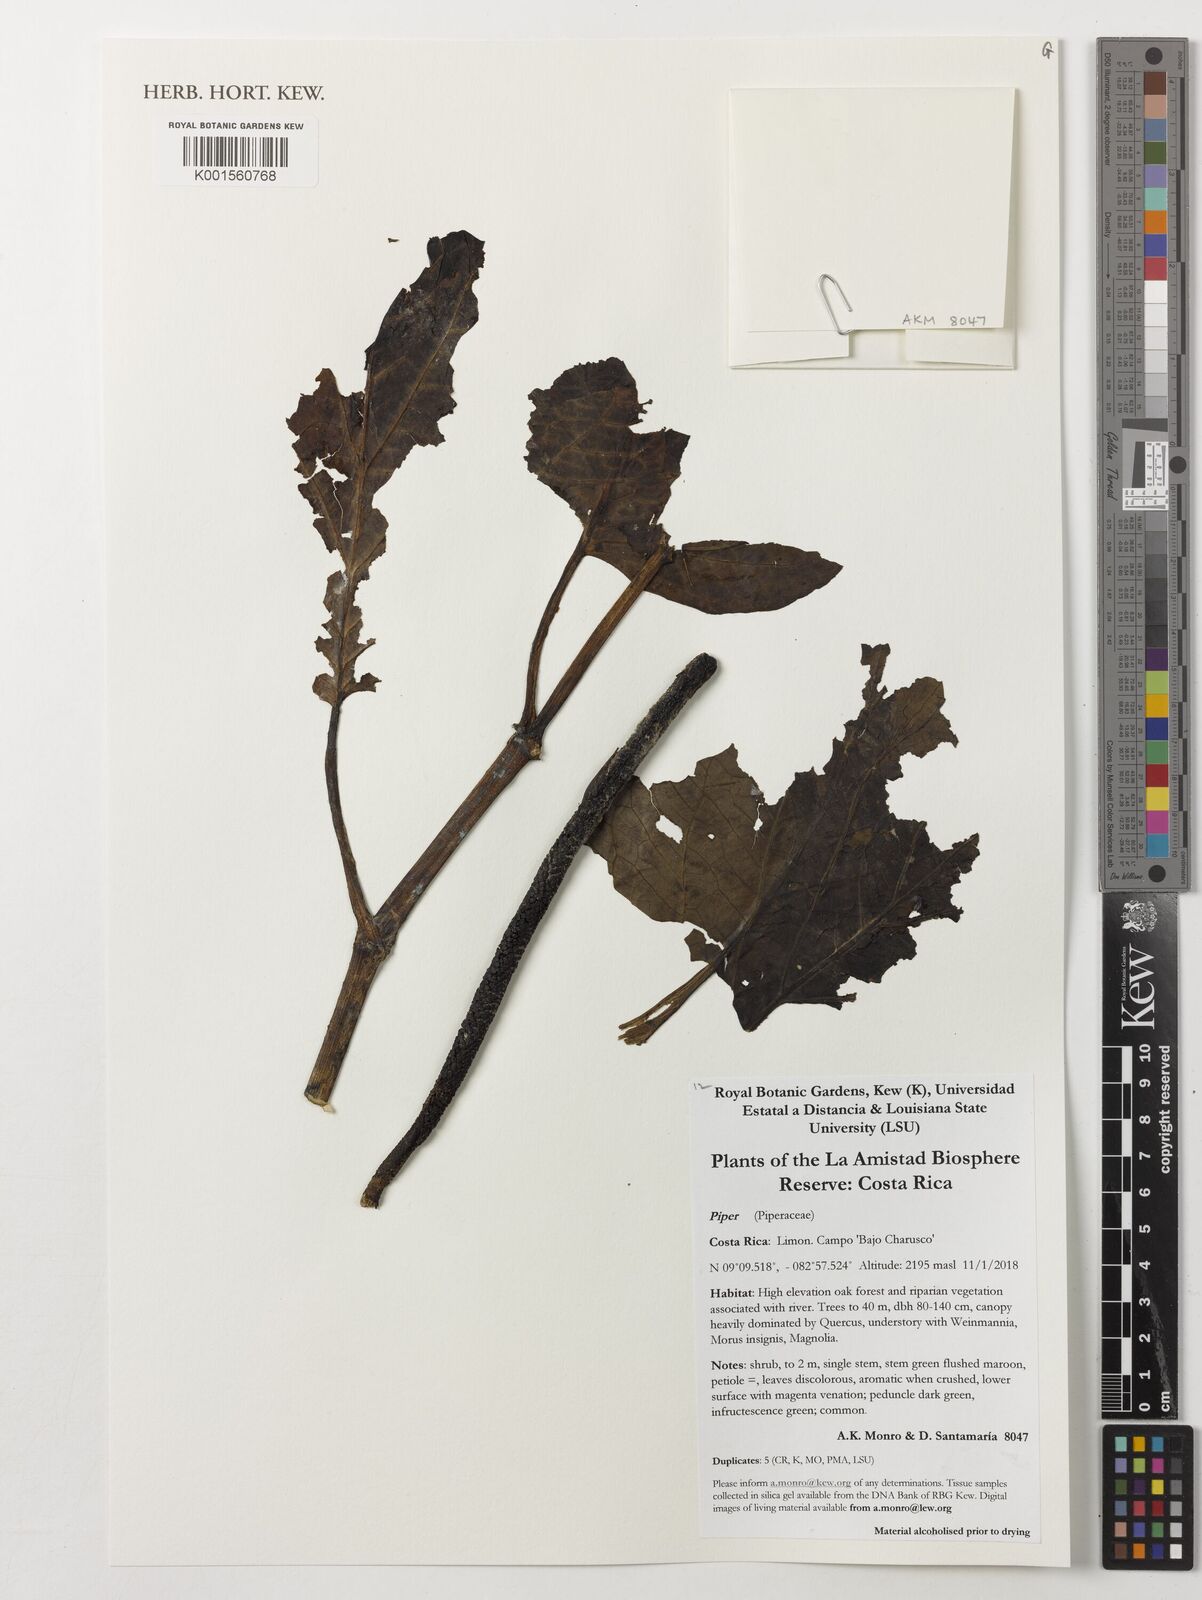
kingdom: Plantae
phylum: Tracheophyta
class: Magnoliopsida
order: Piperales
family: Piperaceae
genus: Piper
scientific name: Piper
